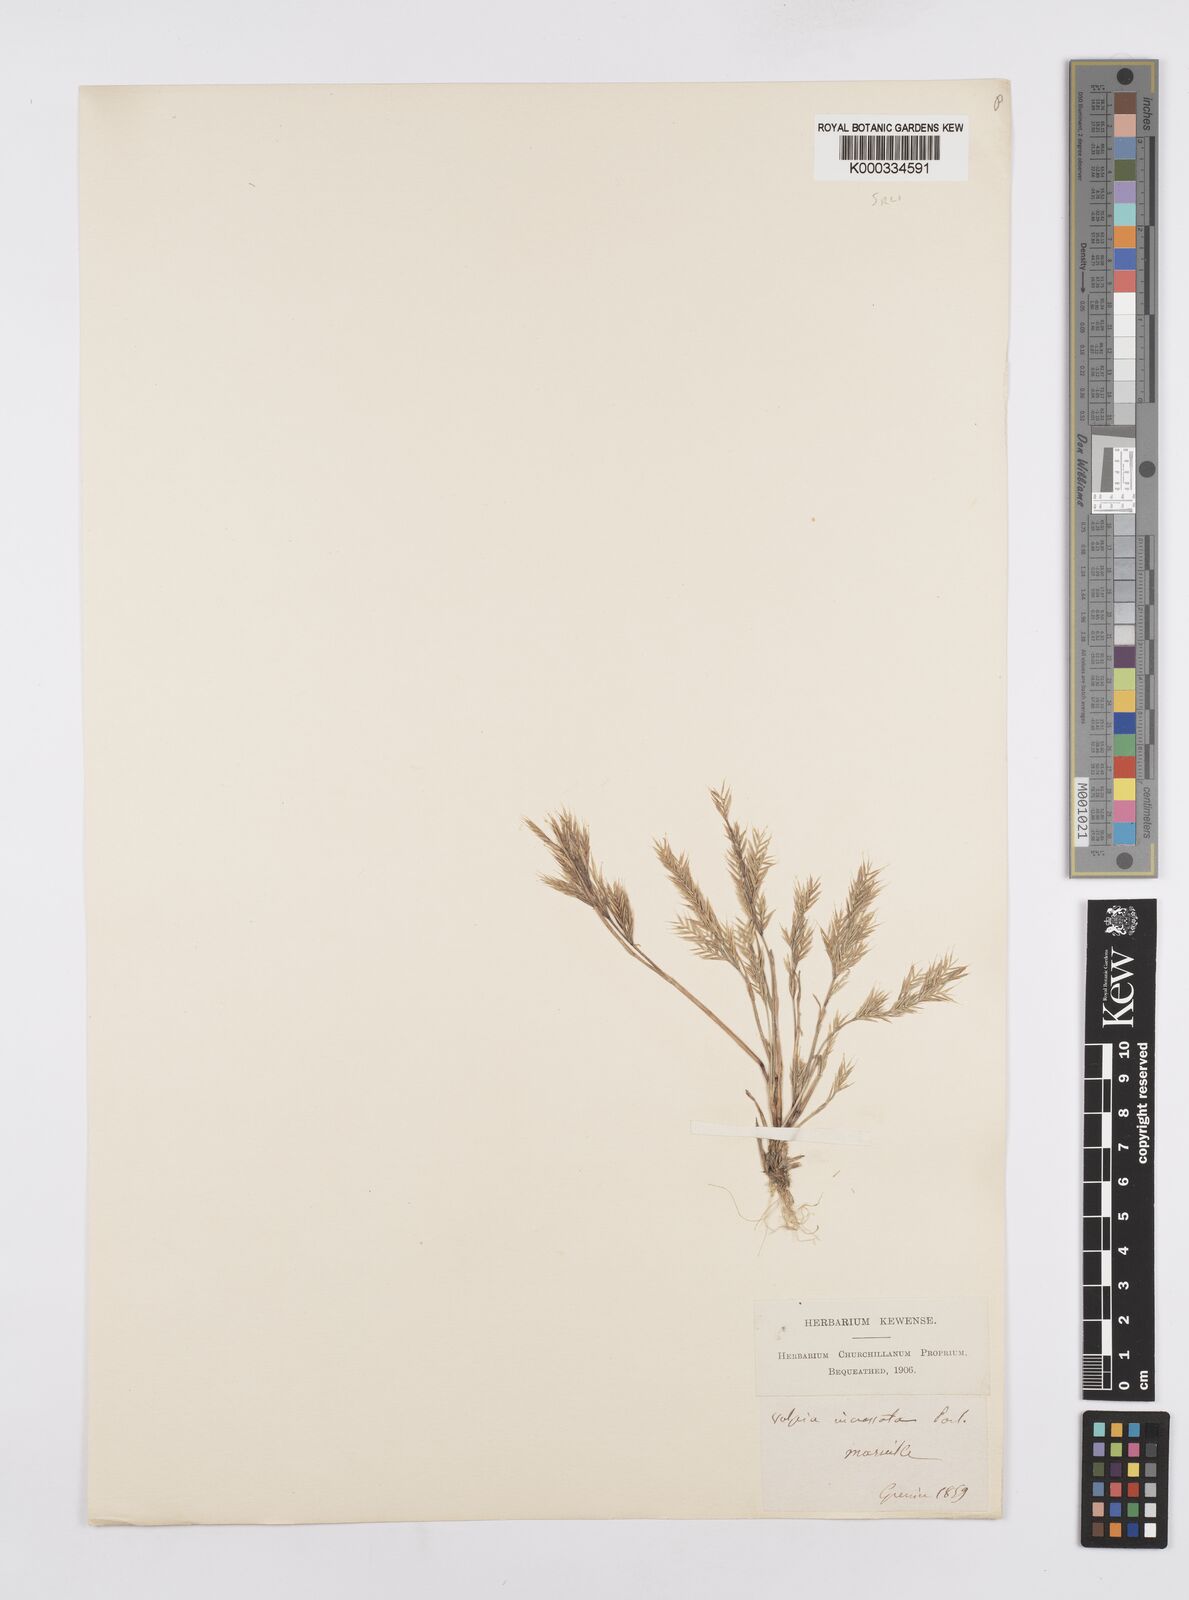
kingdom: Plantae
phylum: Tracheophyta
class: Liliopsida
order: Poales
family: Poaceae
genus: Vulpiella
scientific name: Vulpiella stipoides
